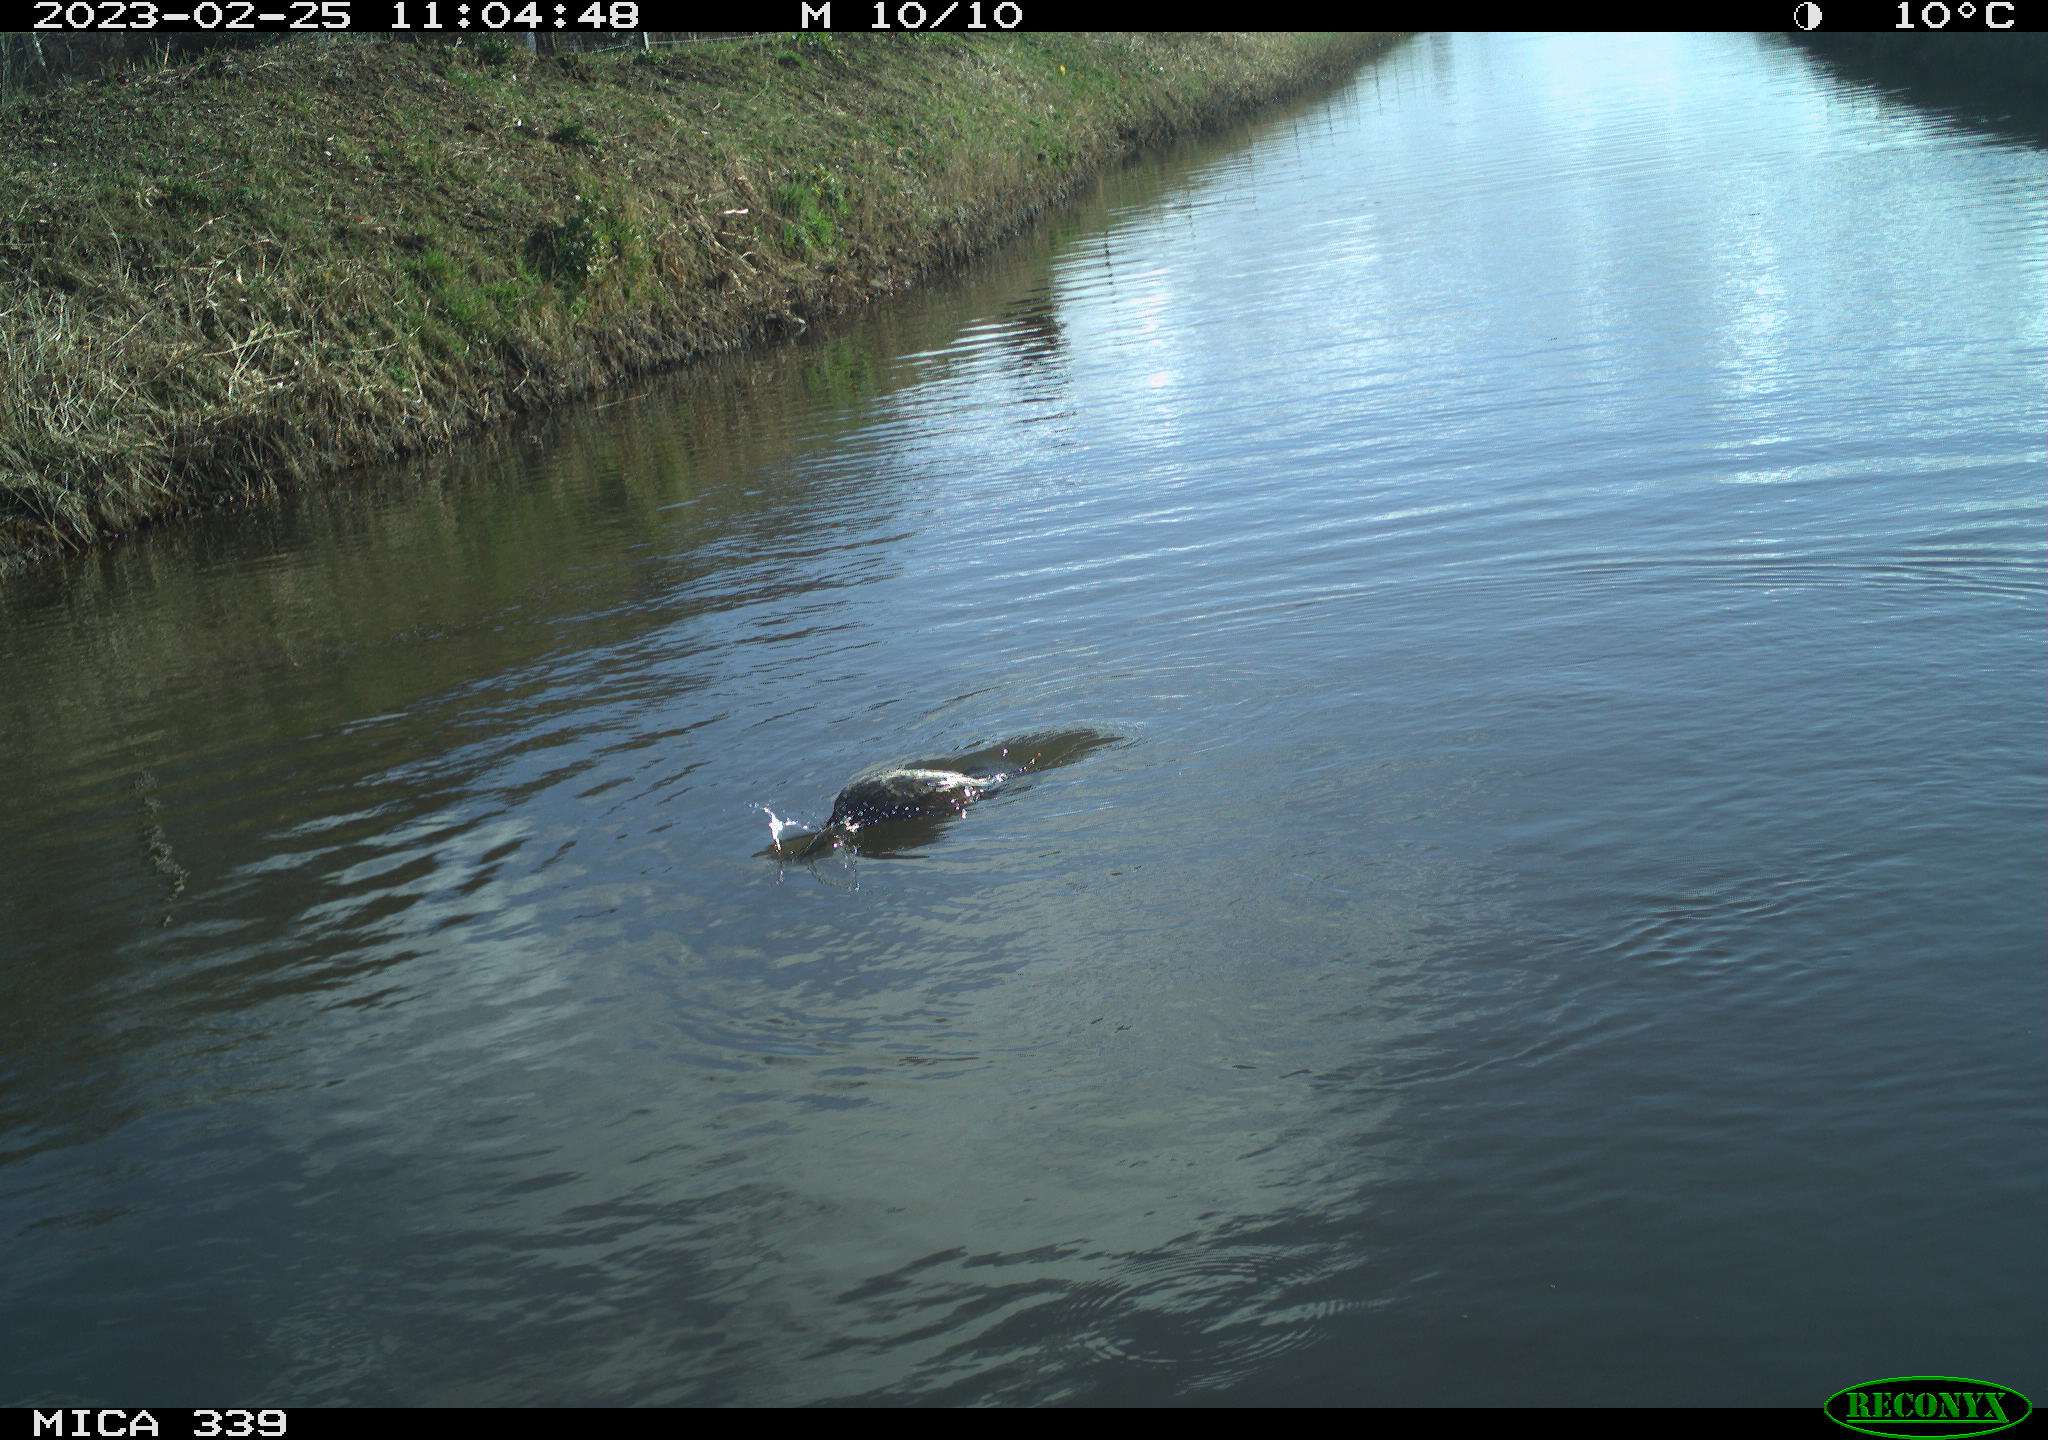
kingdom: Animalia
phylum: Chordata
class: Aves
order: Suliformes
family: Phalacrocoracidae
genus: Phalacrocorax
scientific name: Phalacrocorax carbo
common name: Great cormorant
